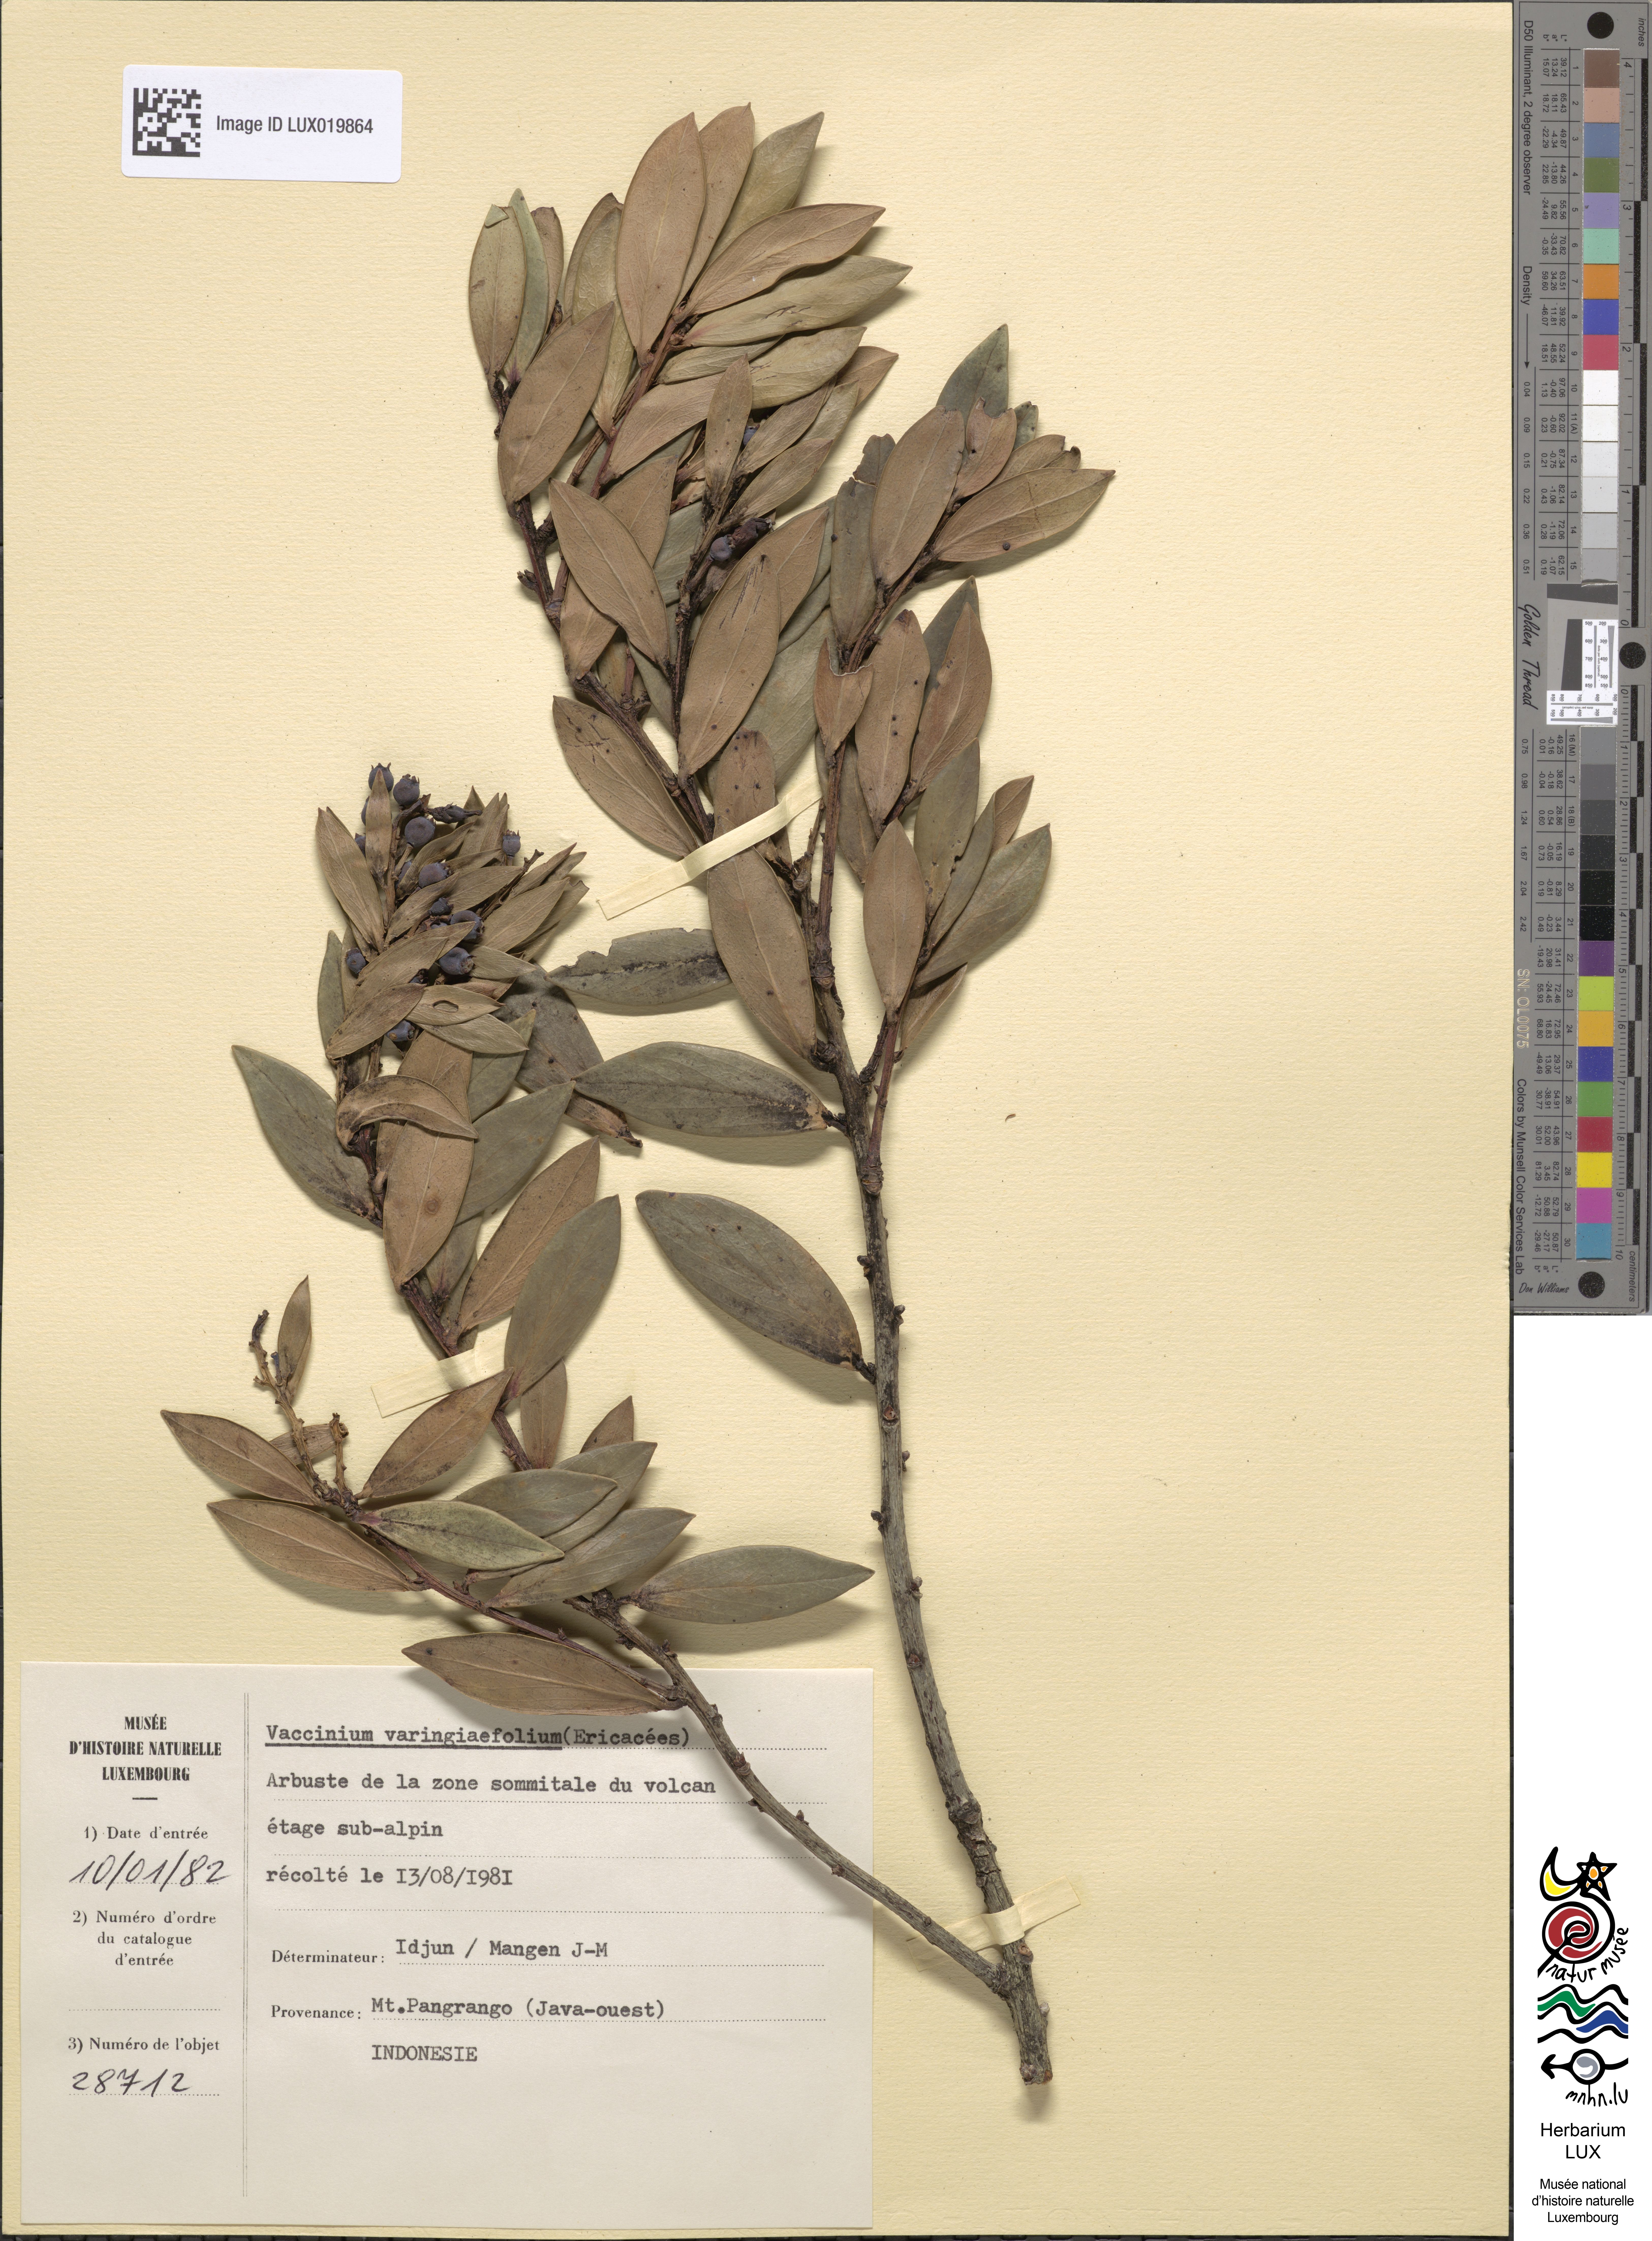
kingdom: Plantae
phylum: Tracheophyta
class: Magnoliopsida
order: Ericales
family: Ericaceae
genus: Vaccinium
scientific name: Vaccinium varingiaefolium
